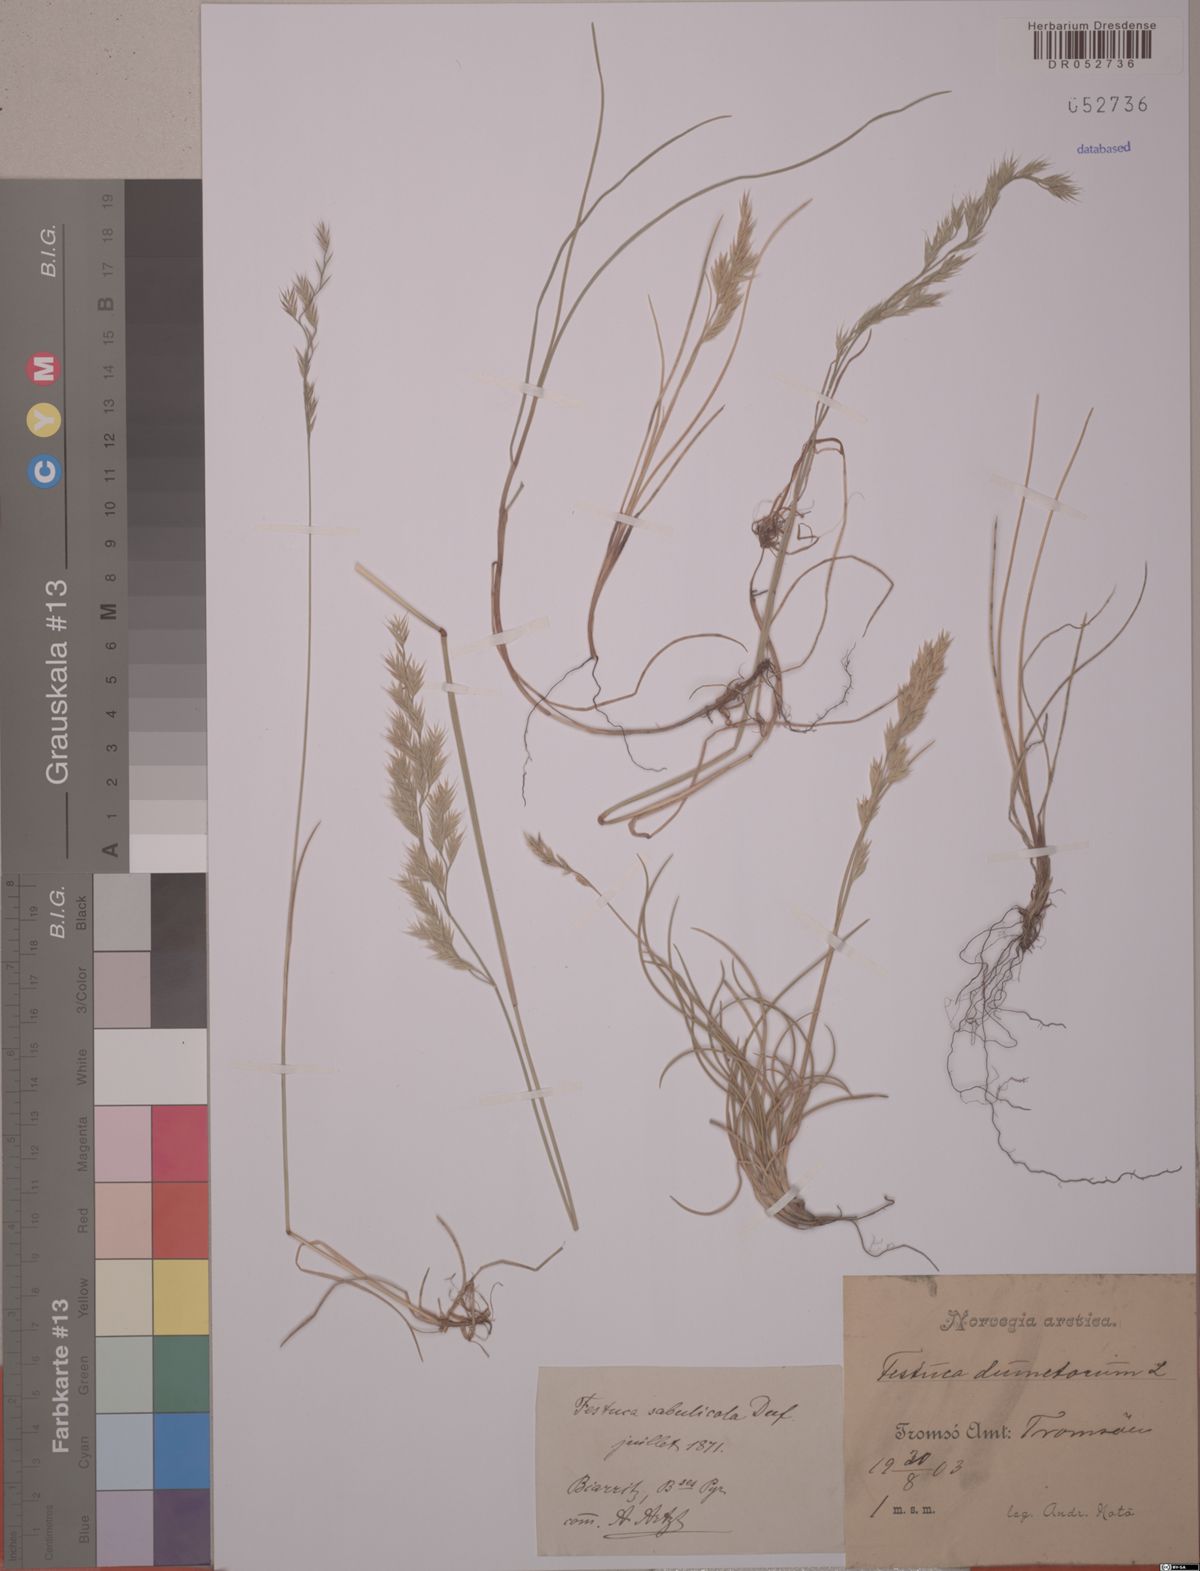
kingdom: Plantae
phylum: Tracheophyta
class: Liliopsida
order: Poales
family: Poaceae
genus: Festuca
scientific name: Festuca
